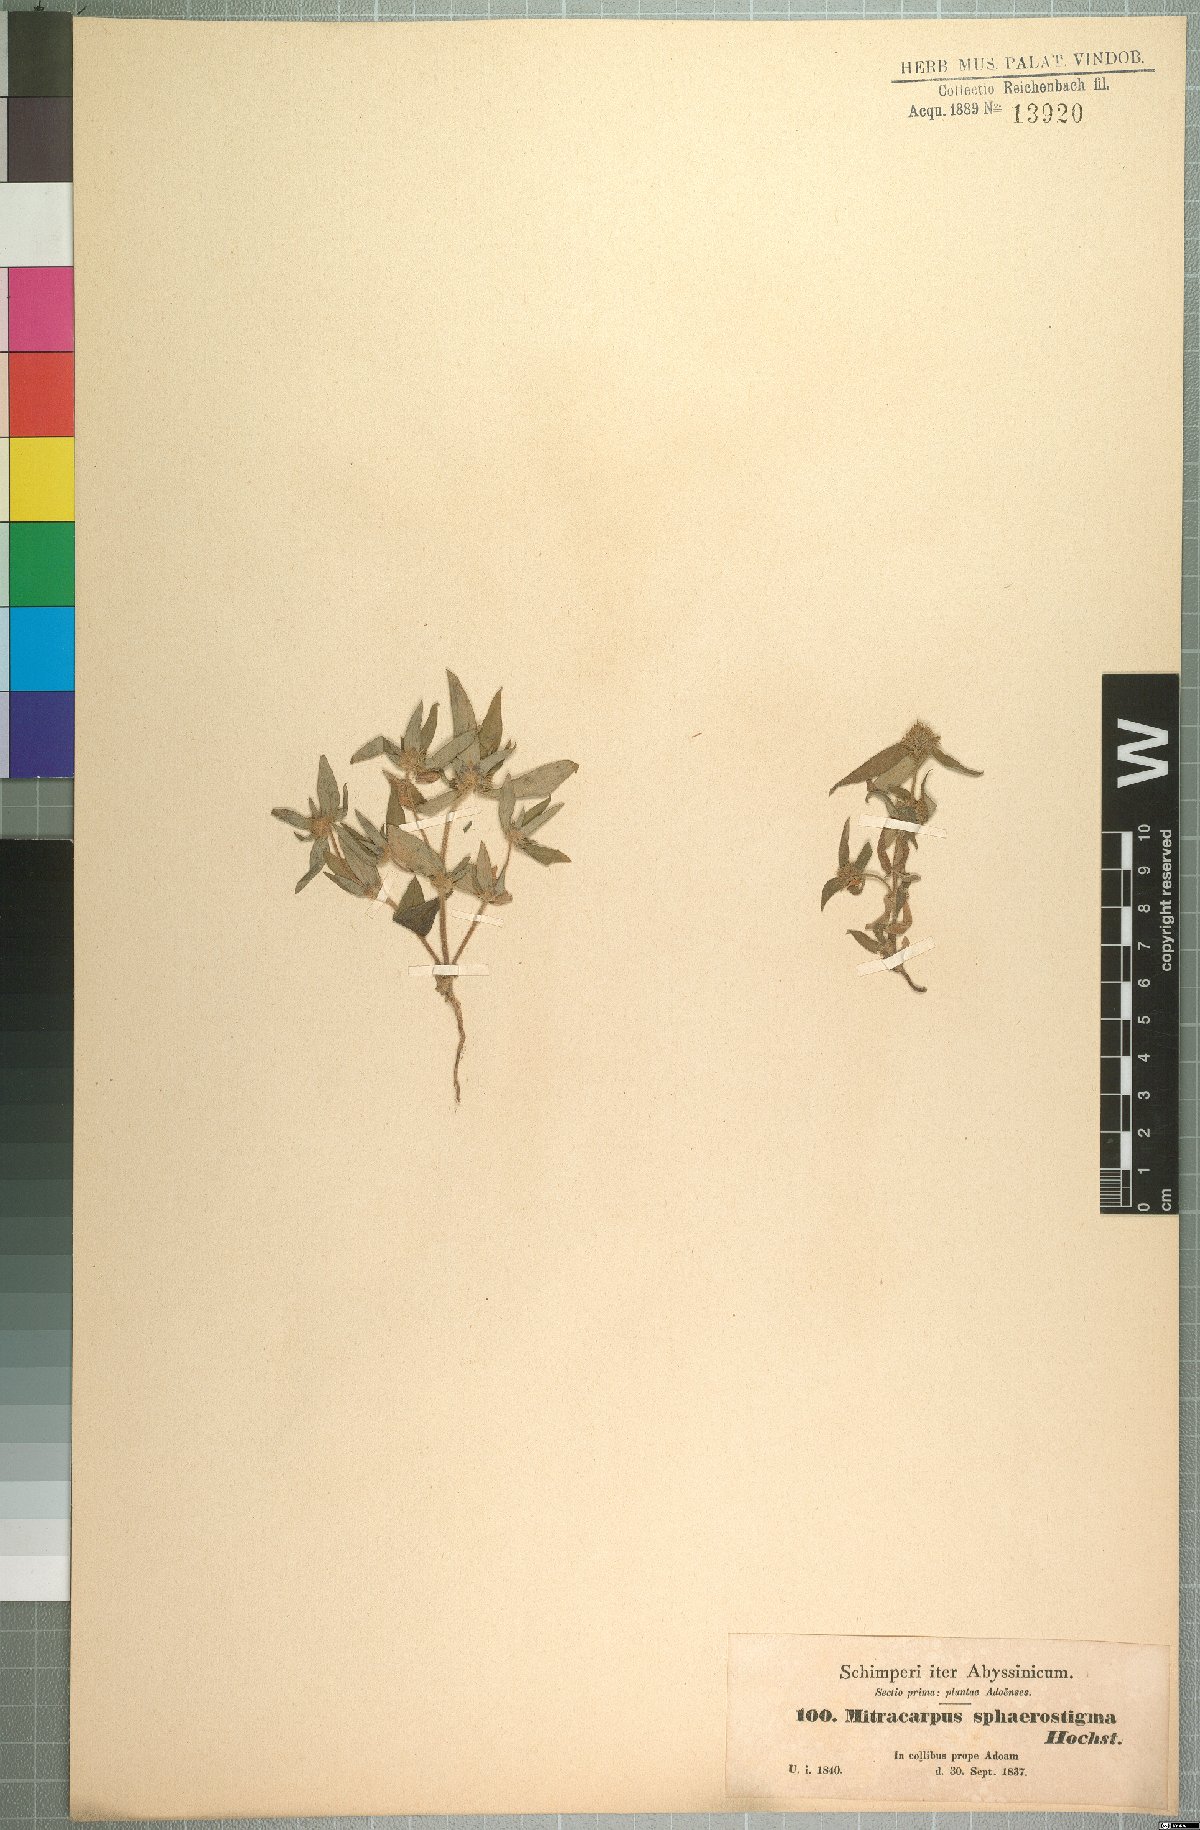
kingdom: Plantae
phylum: Tracheophyta
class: Magnoliopsida
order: Gentianales
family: Rubiaceae
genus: Spermacoce
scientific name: Spermacoce sphaerostigma
